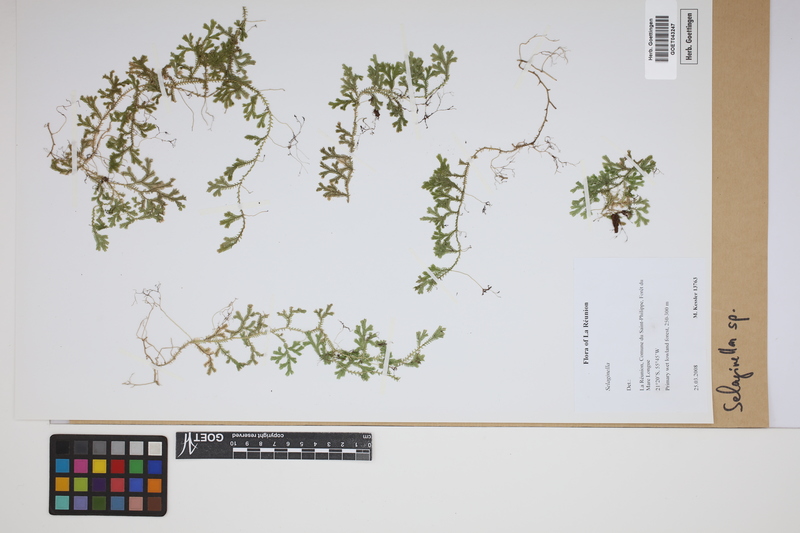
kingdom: Plantae
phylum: Tracheophyta
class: Lycopodiopsida
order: Selaginellales
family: Selaginellaceae
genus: Selaginella
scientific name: Selaginella
